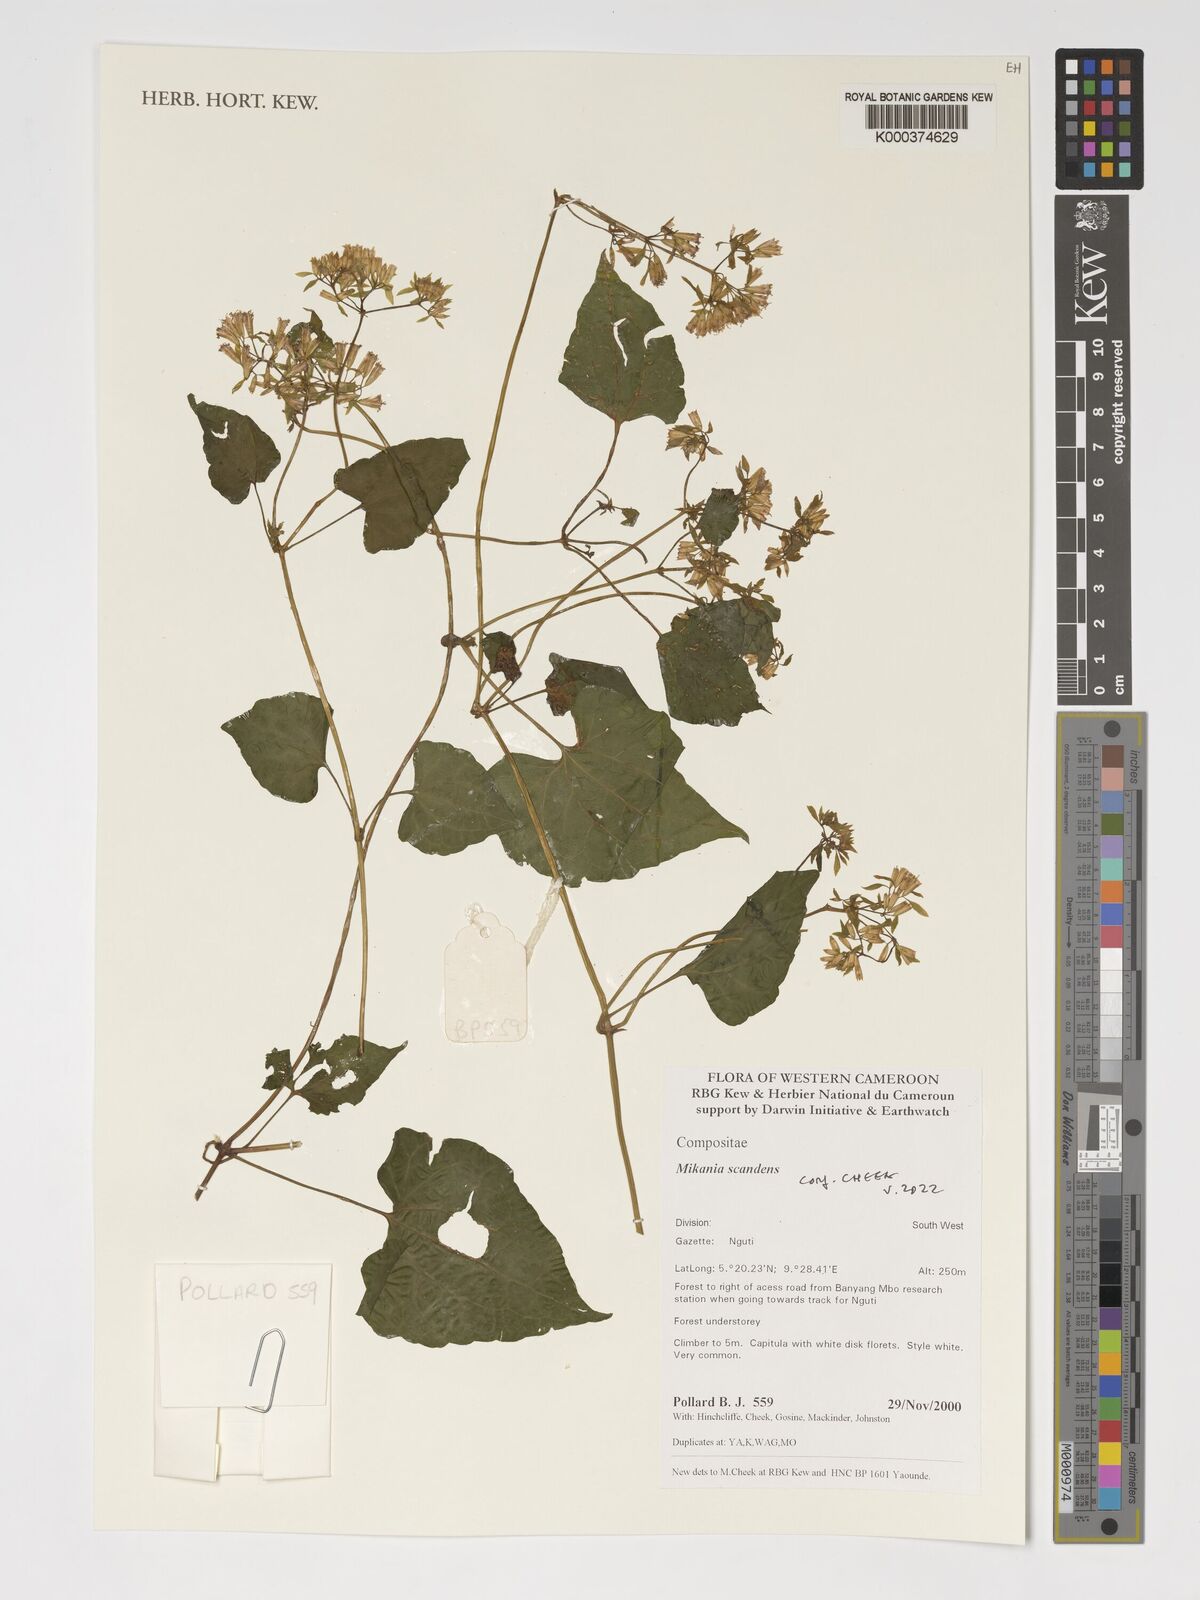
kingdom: Plantae
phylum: Tracheophyta
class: Magnoliopsida
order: Asterales
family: Asteraceae
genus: Mikania
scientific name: Mikania scandens
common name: Climbing hempvine
